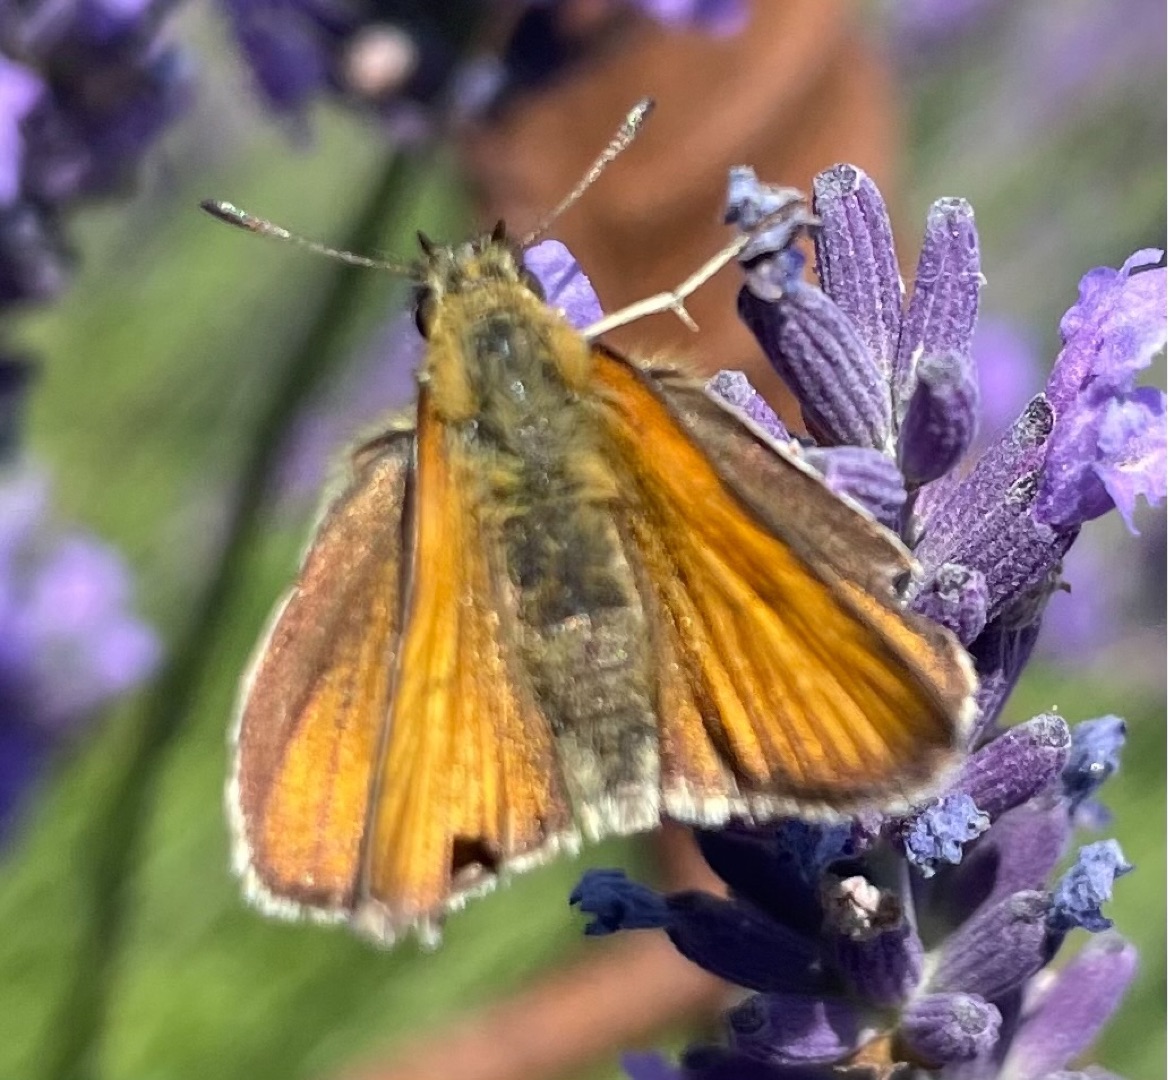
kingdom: Animalia
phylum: Arthropoda
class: Insecta
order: Lepidoptera
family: Hesperiidae
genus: Thymelicus
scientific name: Thymelicus lineola
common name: Stregbredpande
